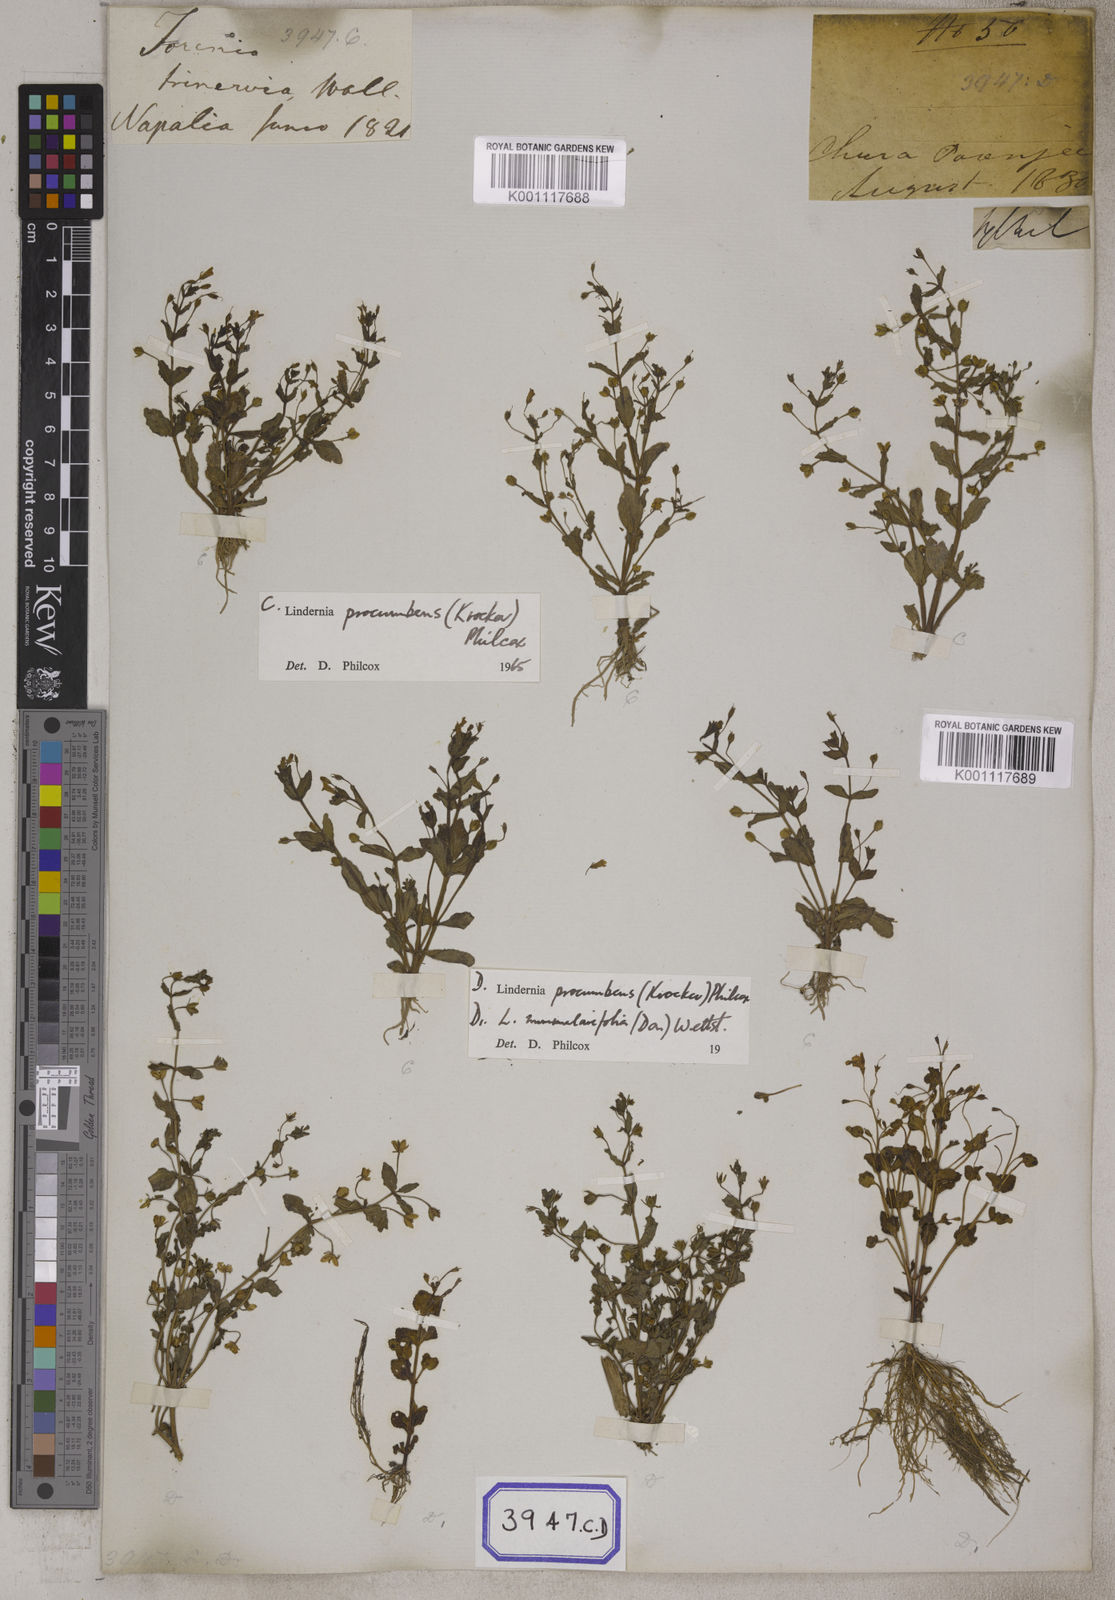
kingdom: Plantae
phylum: Tracheophyta
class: Magnoliopsida
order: Lamiales
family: Linderniaceae
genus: Lindernia
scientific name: Lindernia procumbens
